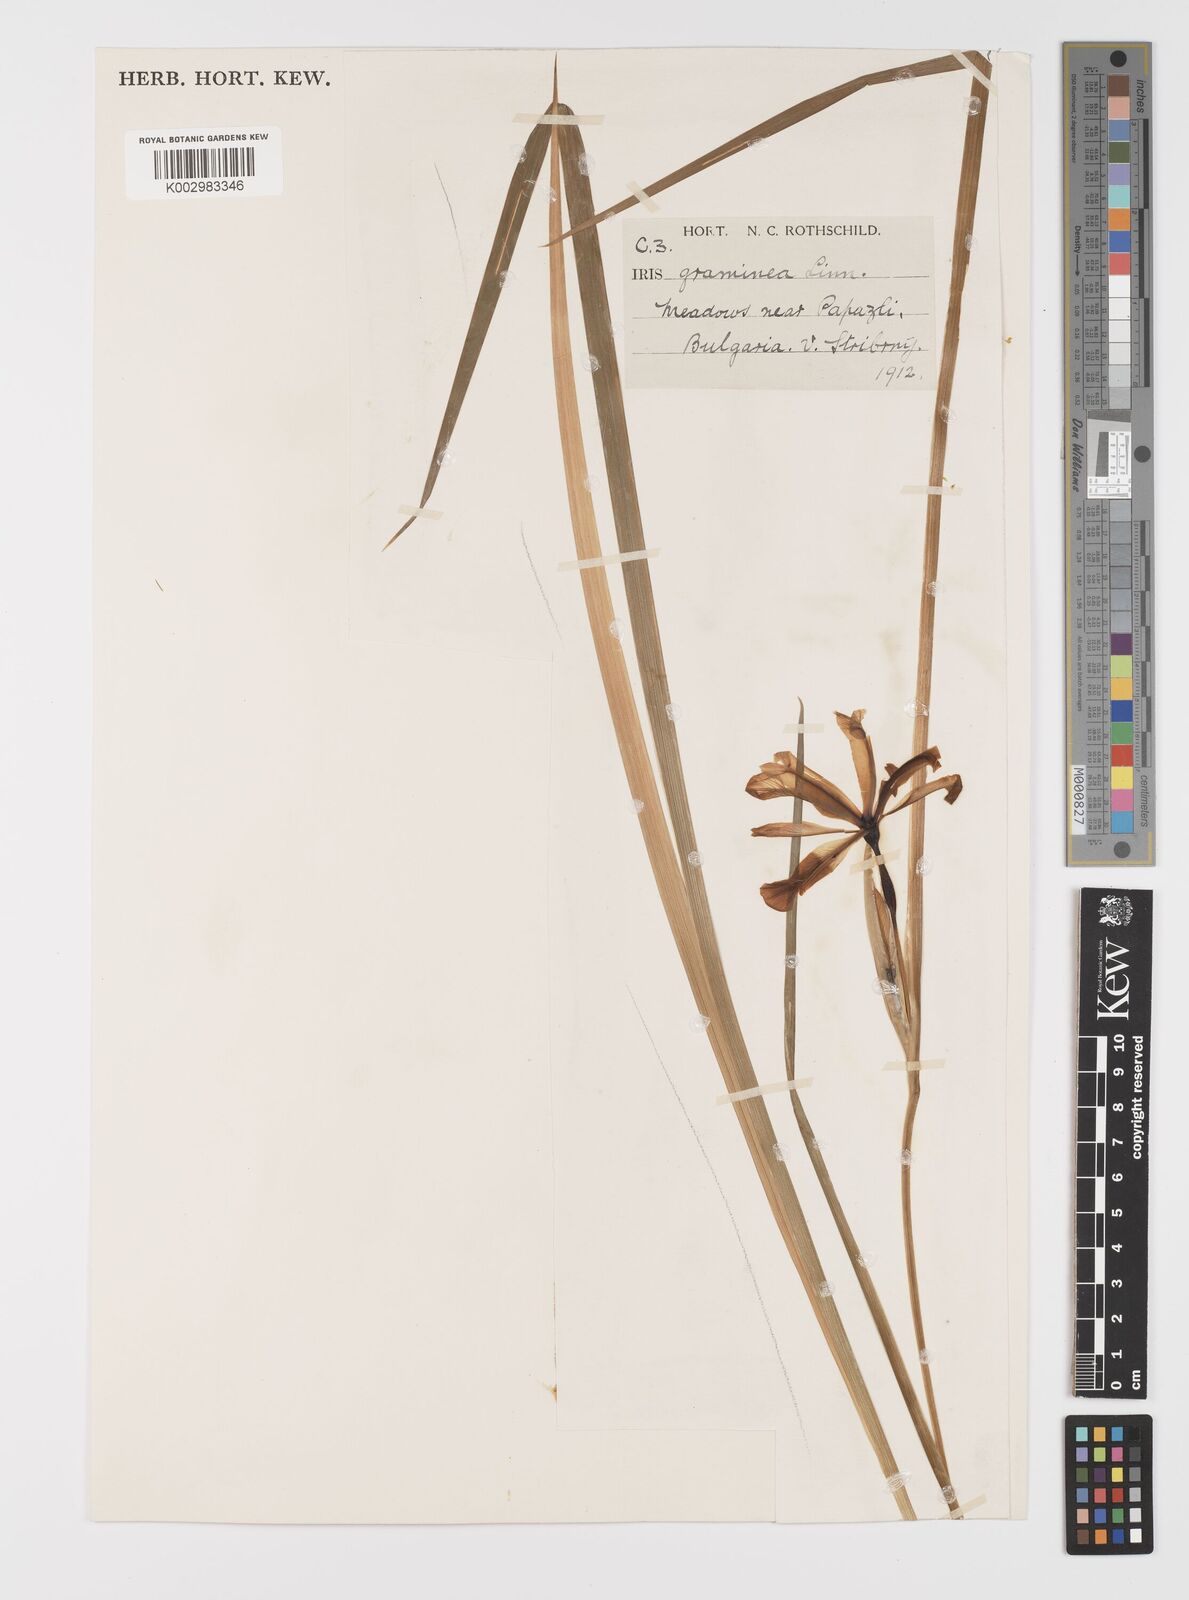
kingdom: Plantae
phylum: Tracheophyta
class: Liliopsida
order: Asparagales
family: Iridaceae
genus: Iris
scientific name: Iris graminea
